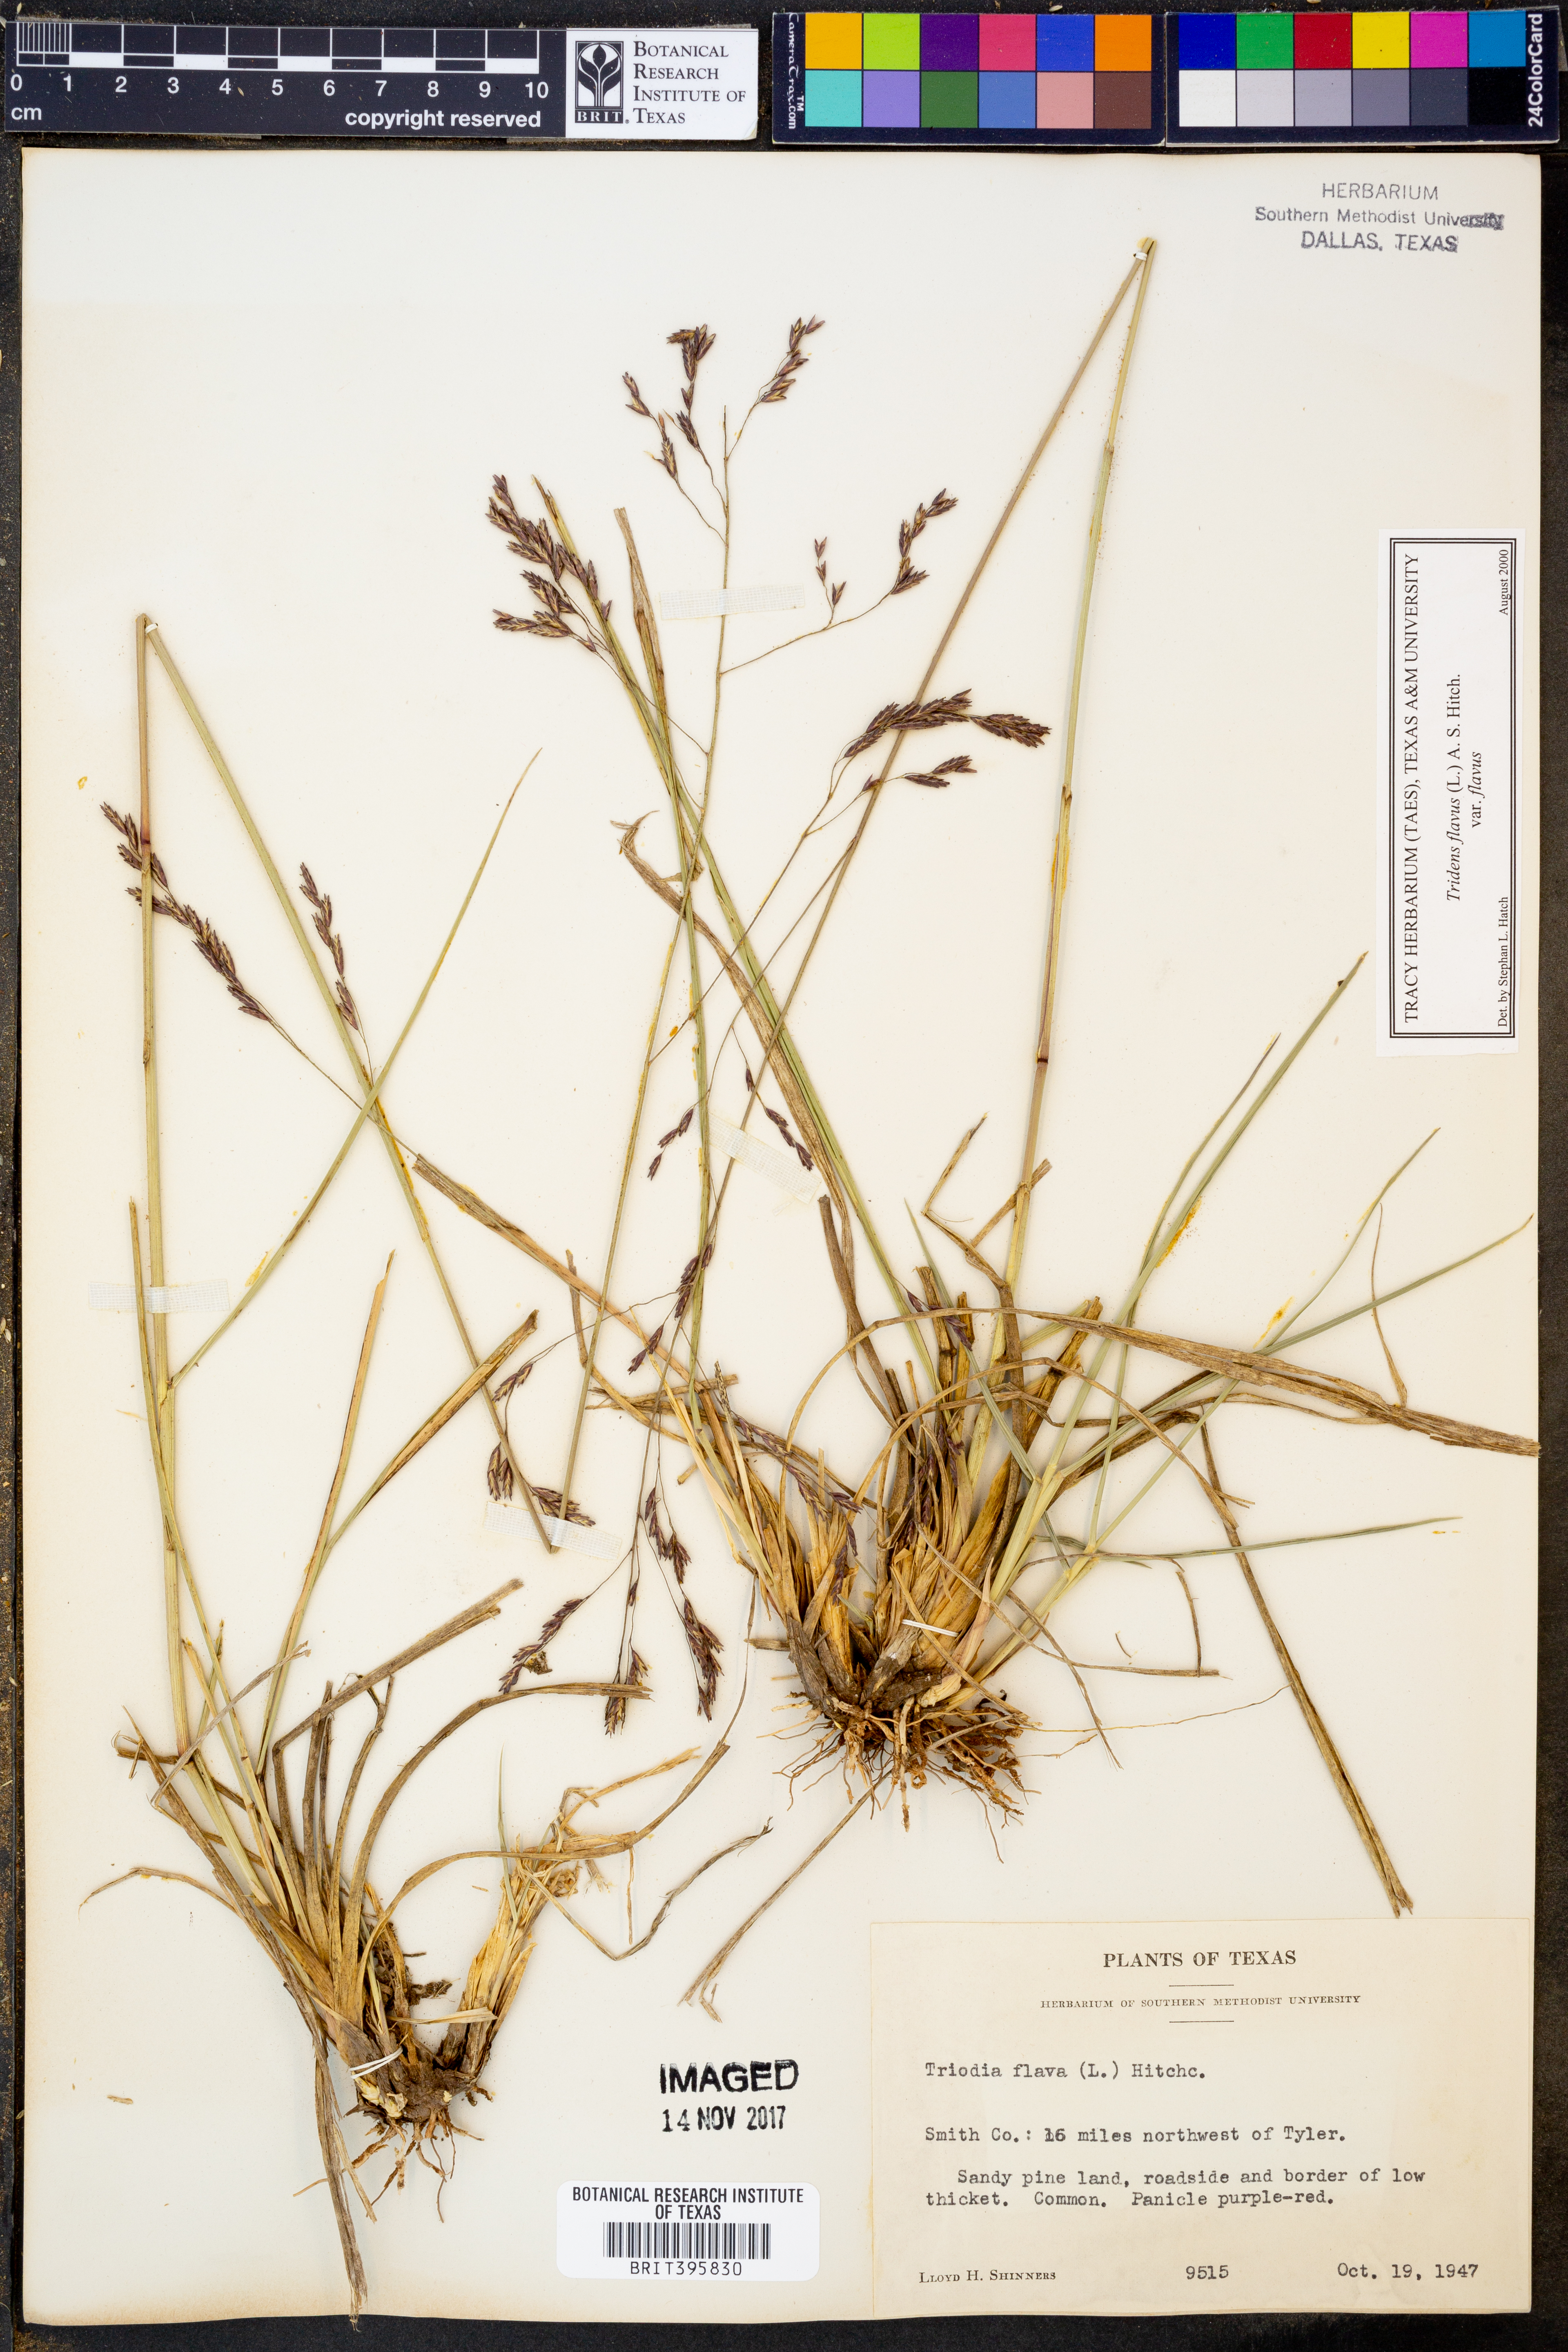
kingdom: Plantae
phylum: Tracheophyta
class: Liliopsida
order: Poales
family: Poaceae
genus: Tridens
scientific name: Tridens flavus
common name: Purpletop
